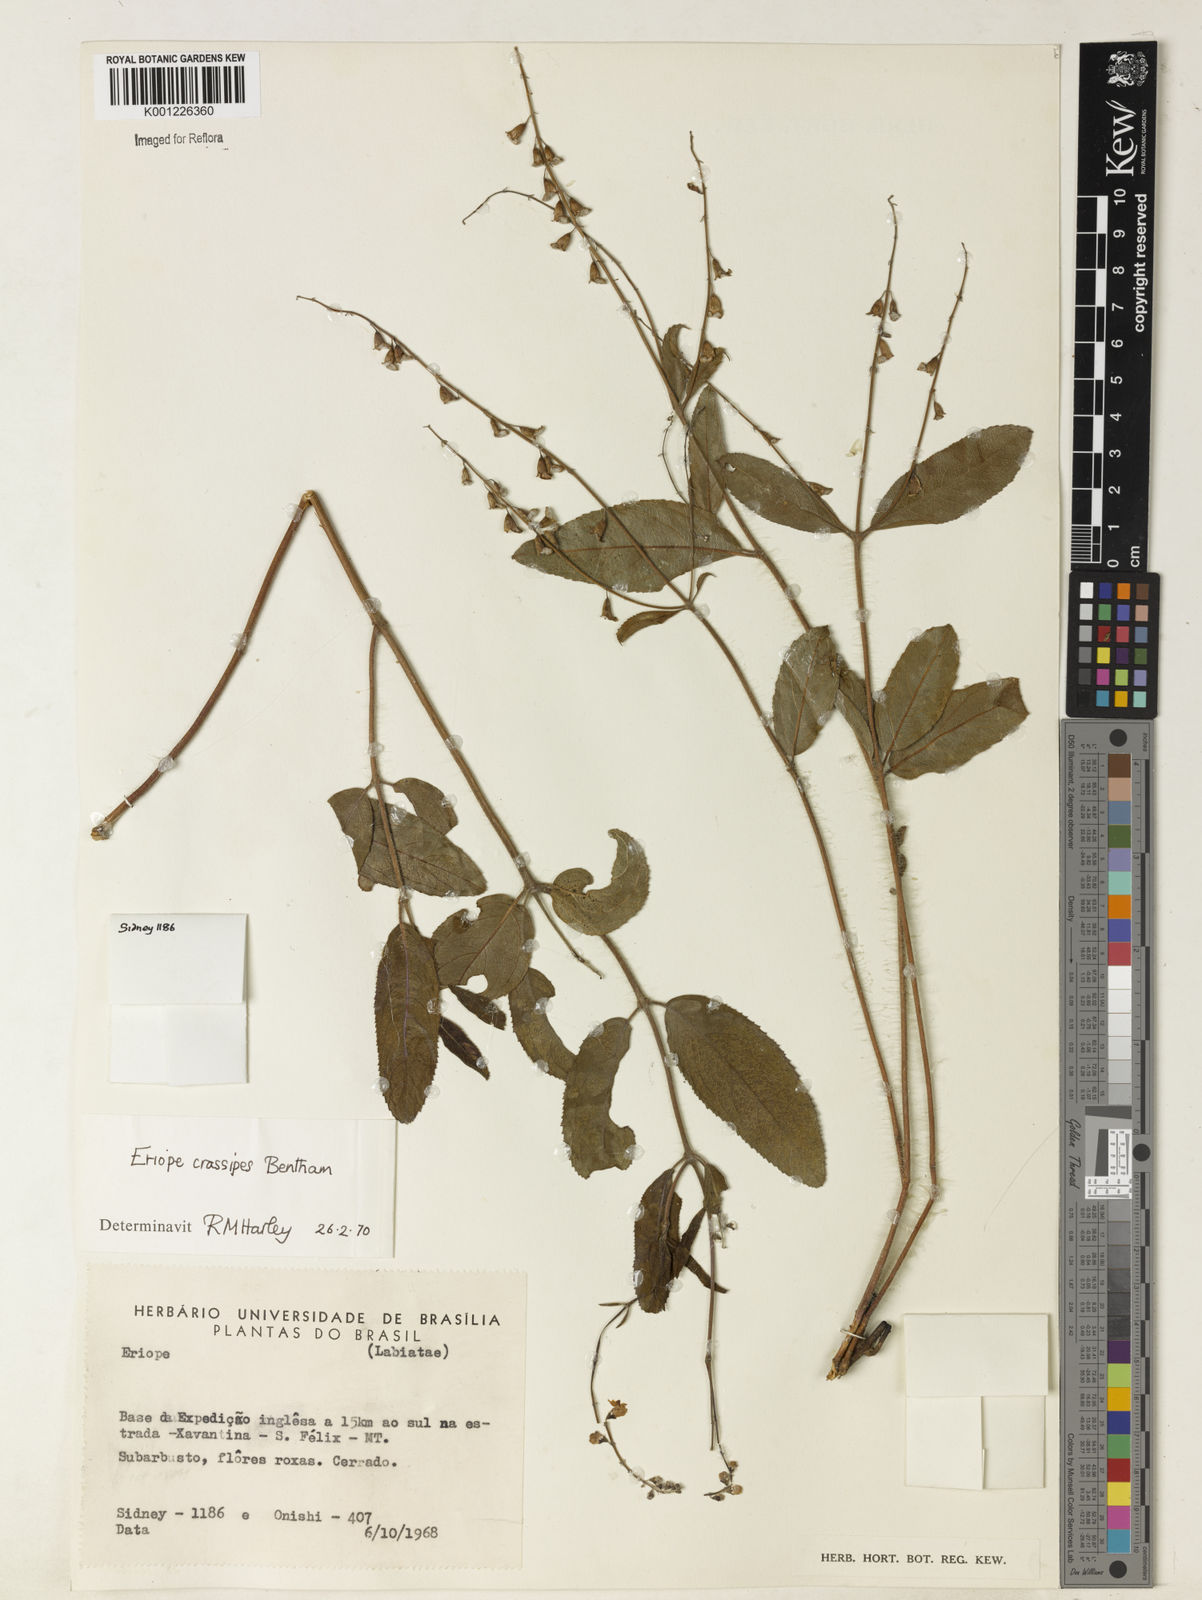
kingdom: Plantae
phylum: Tracheophyta
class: Magnoliopsida
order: Lamiales
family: Lamiaceae
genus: Eriope
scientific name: Eriope crassipes
